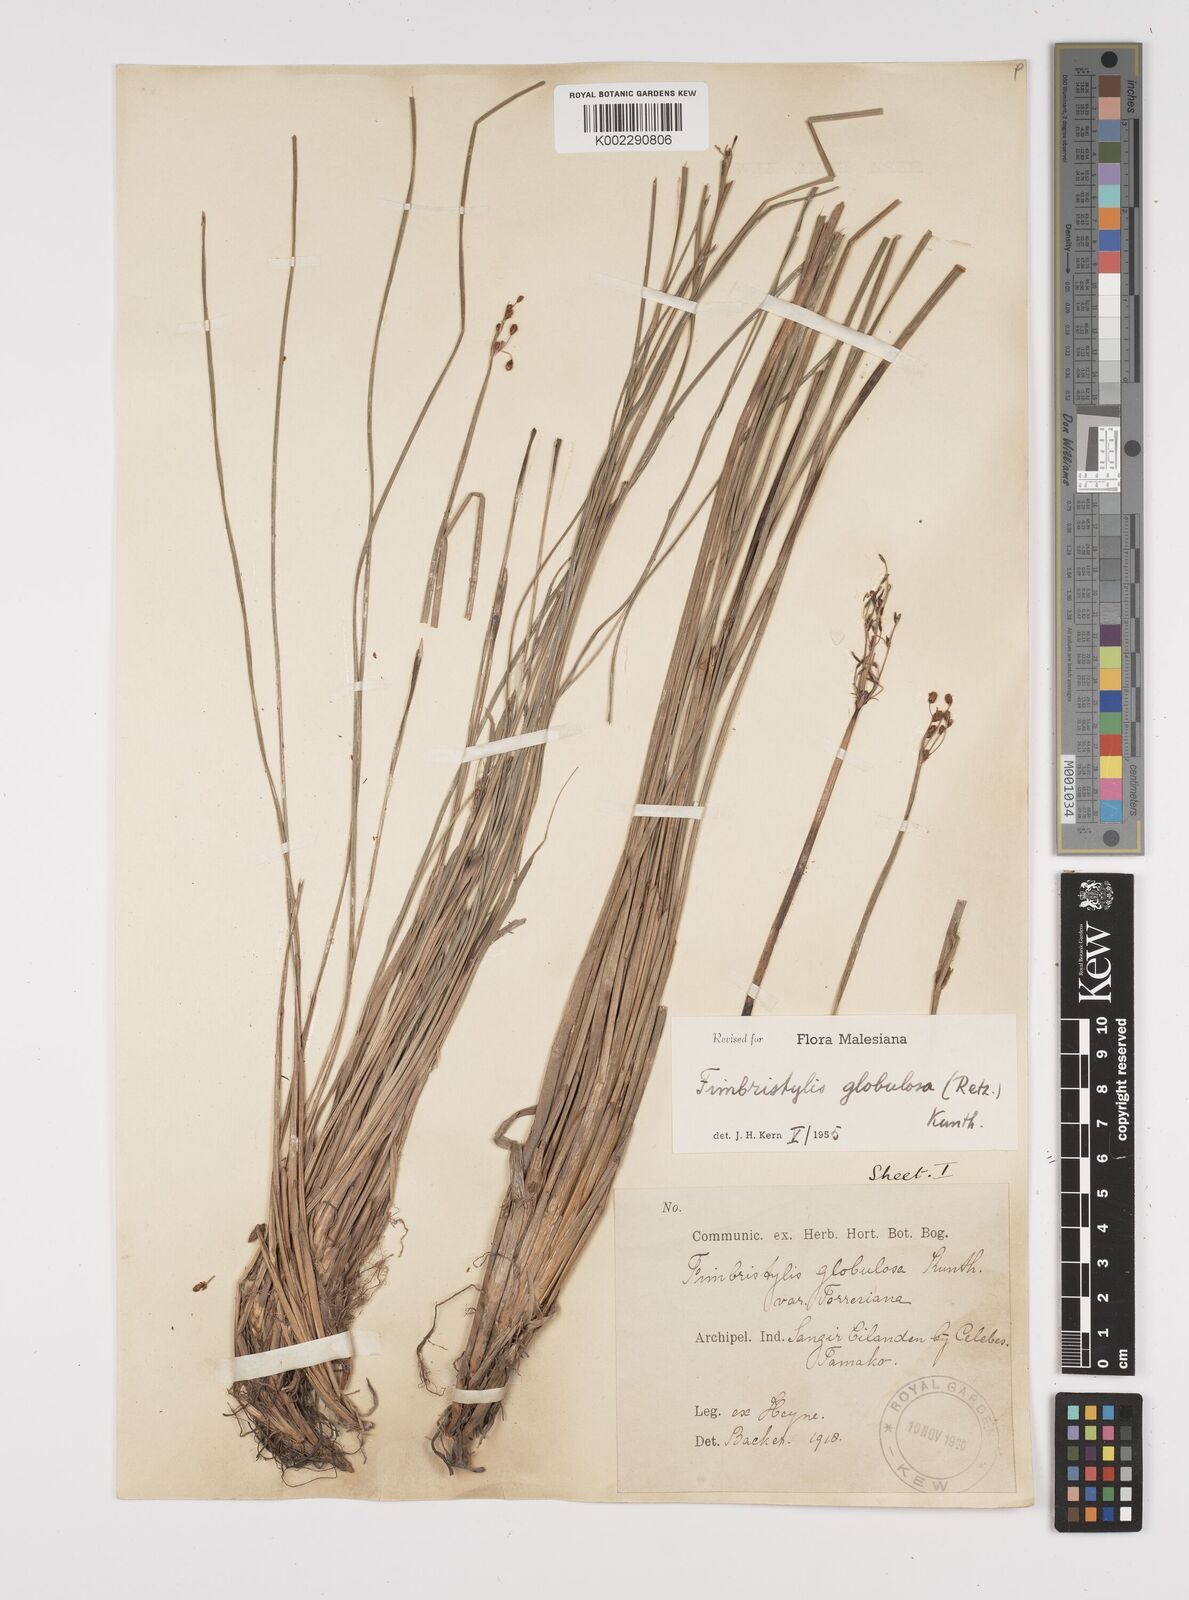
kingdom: Plantae
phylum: Tracheophyta
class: Liliopsida
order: Poales
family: Cyperaceae
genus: Fimbristylis
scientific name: Fimbristylis umbellaris
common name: Globular fimbristylis
